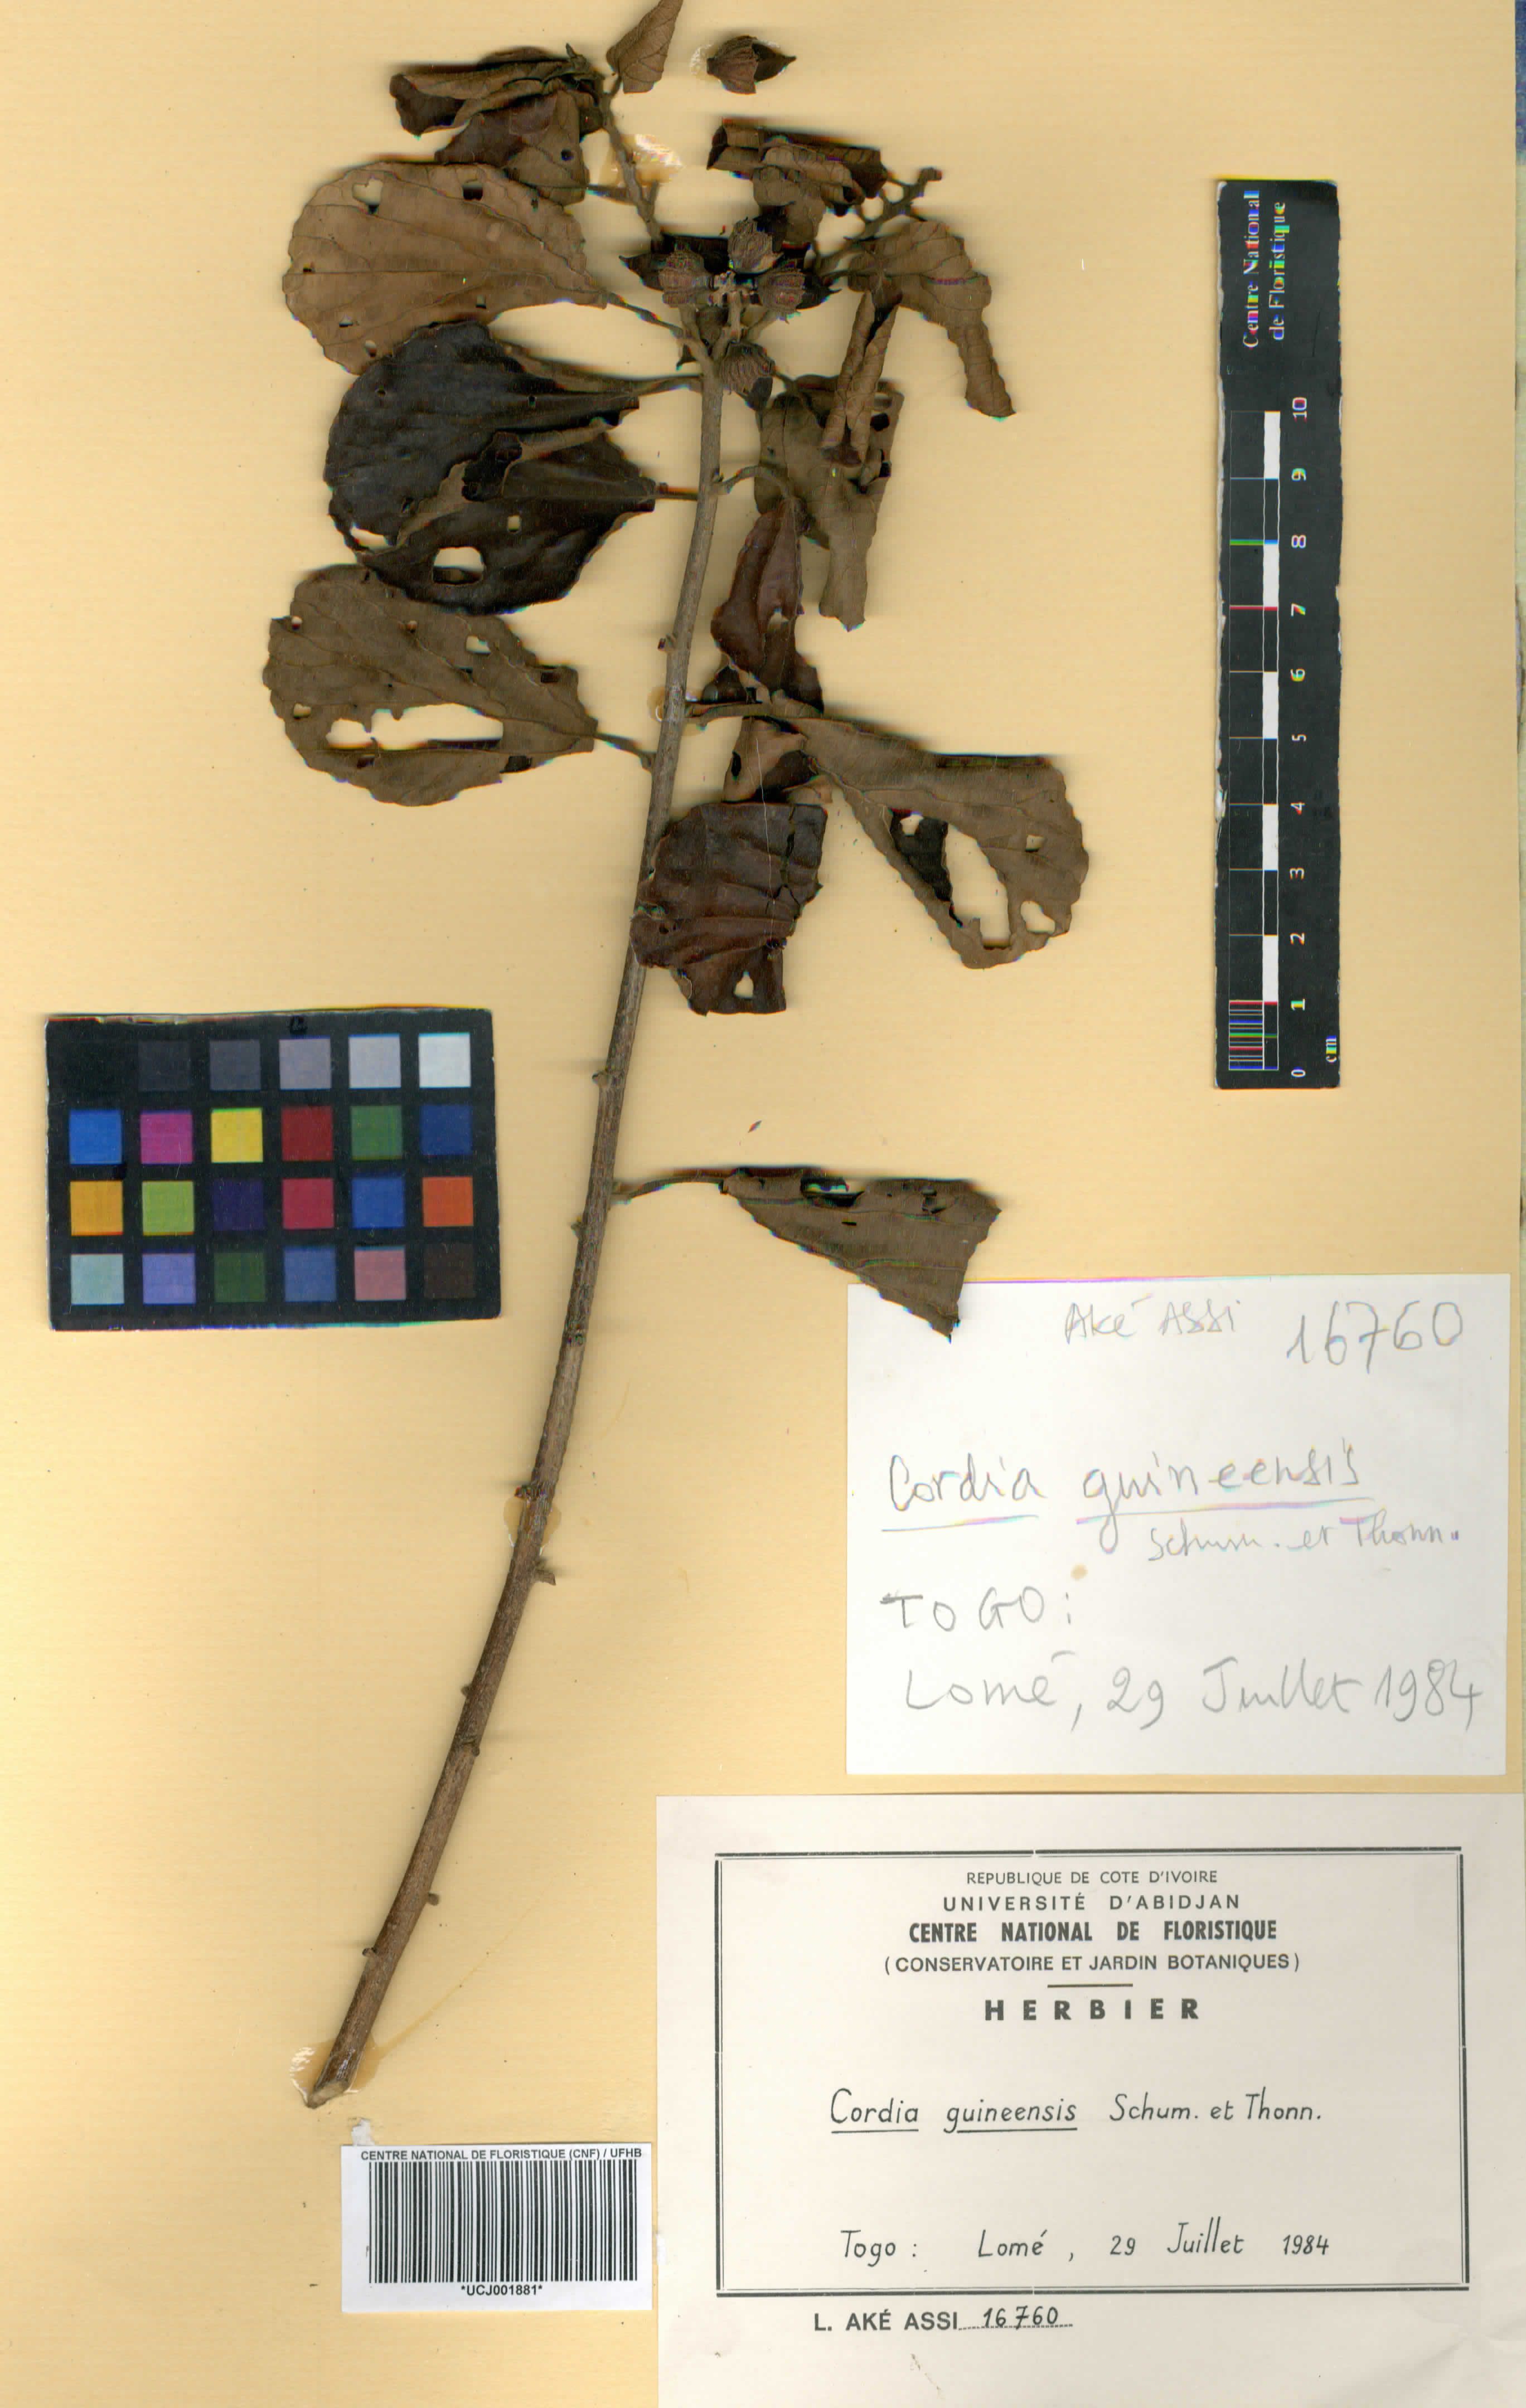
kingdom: Plantae
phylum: Tracheophyta
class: Magnoliopsida
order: Boraginales
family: Cordiaceae
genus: Cordia
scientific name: Cordia guineensis
